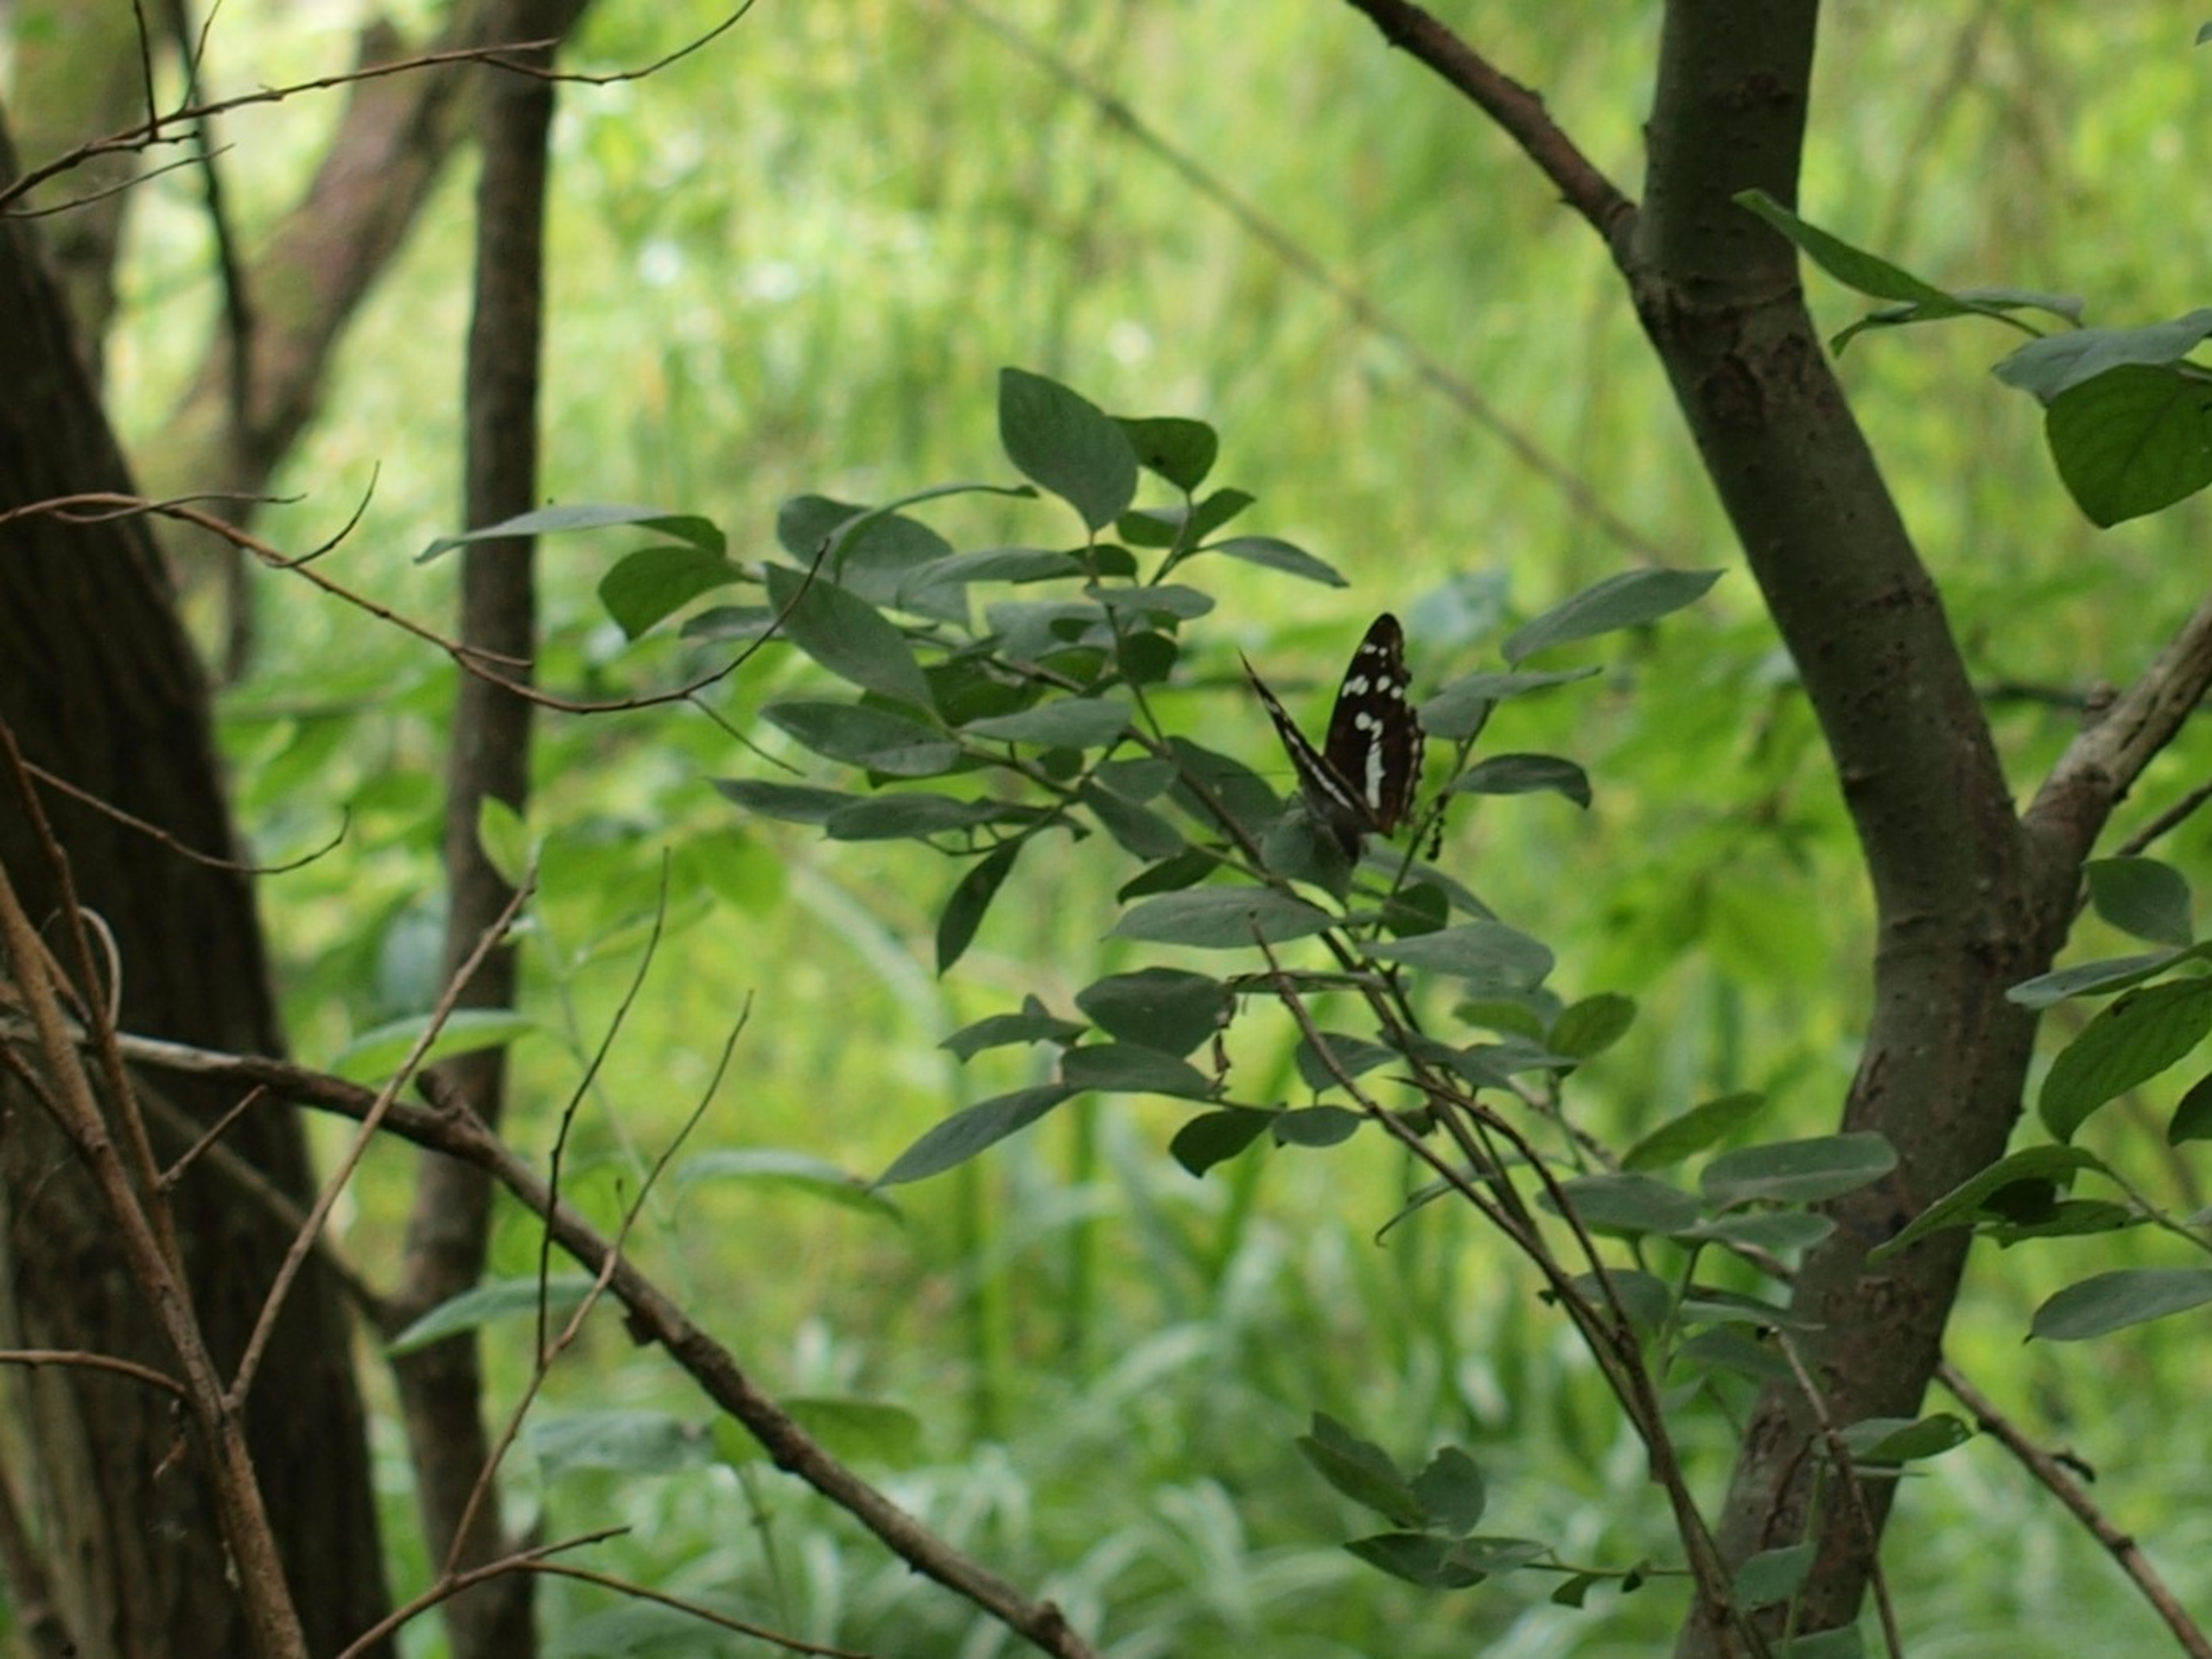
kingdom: Animalia
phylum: Arthropoda
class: Insecta
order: Lepidoptera
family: Nymphalidae
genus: Apatura
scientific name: Apatura iris
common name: Iris
